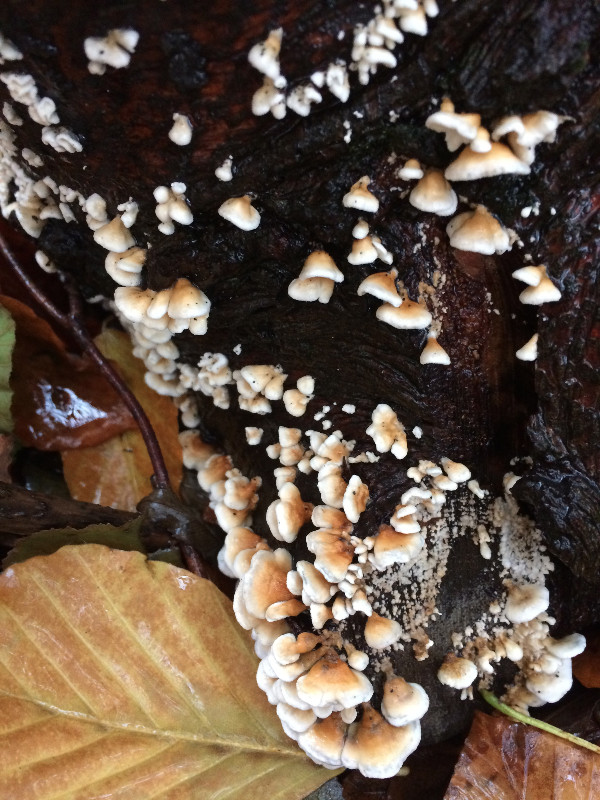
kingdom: Fungi
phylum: Basidiomycota
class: Agaricomycetes
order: Amylocorticiales
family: Amylocorticiaceae
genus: Plicaturopsis
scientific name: Plicaturopsis crispa
